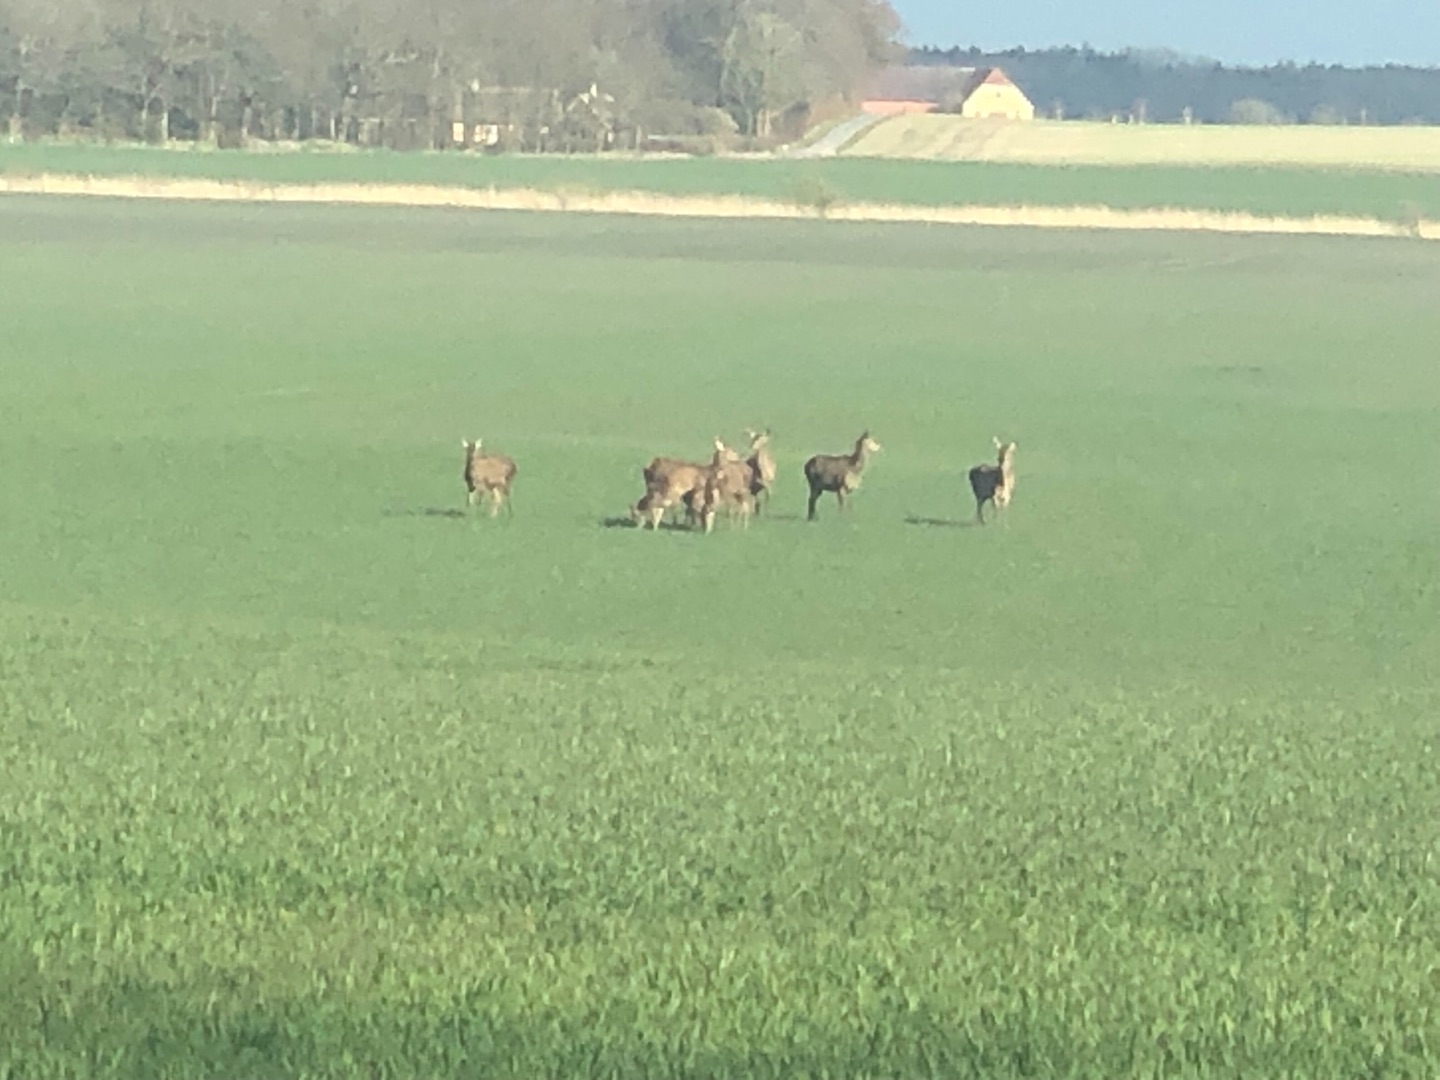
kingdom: Animalia
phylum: Chordata
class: Mammalia
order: Artiodactyla
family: Cervidae
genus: Cervus
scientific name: Cervus elaphus
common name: Krondyr
